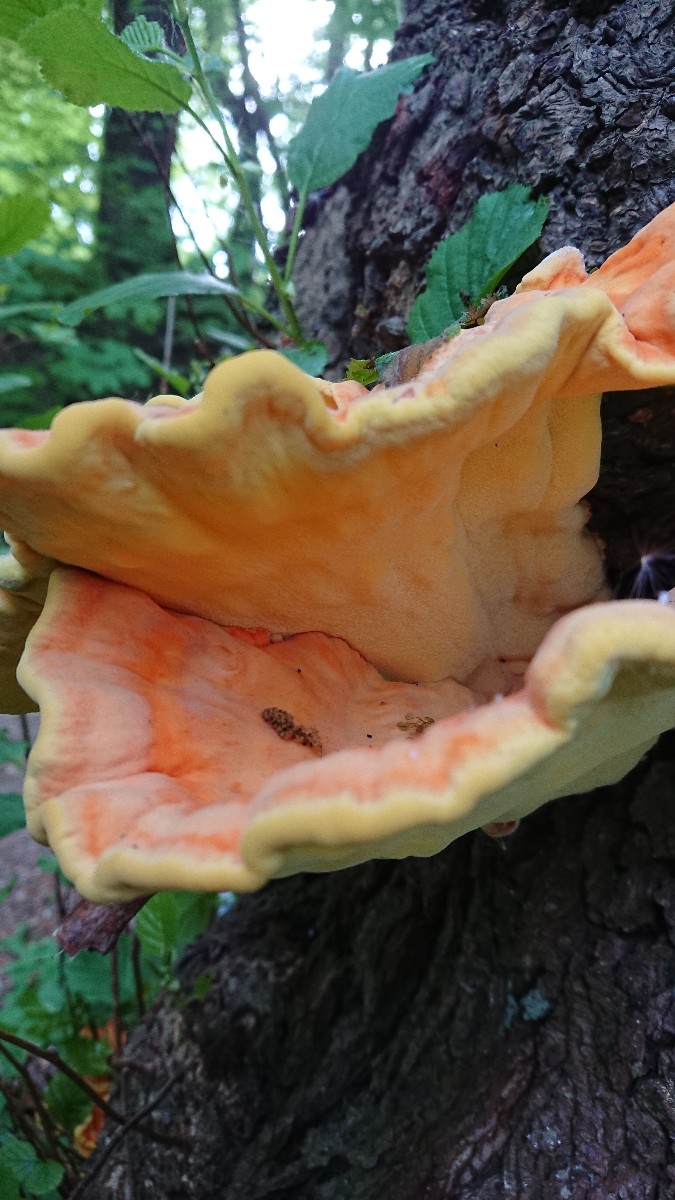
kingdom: Fungi
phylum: Basidiomycota
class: Agaricomycetes
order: Polyporales
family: Laetiporaceae
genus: Laetiporus
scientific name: Laetiporus sulphureus
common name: svovlporesvamp
